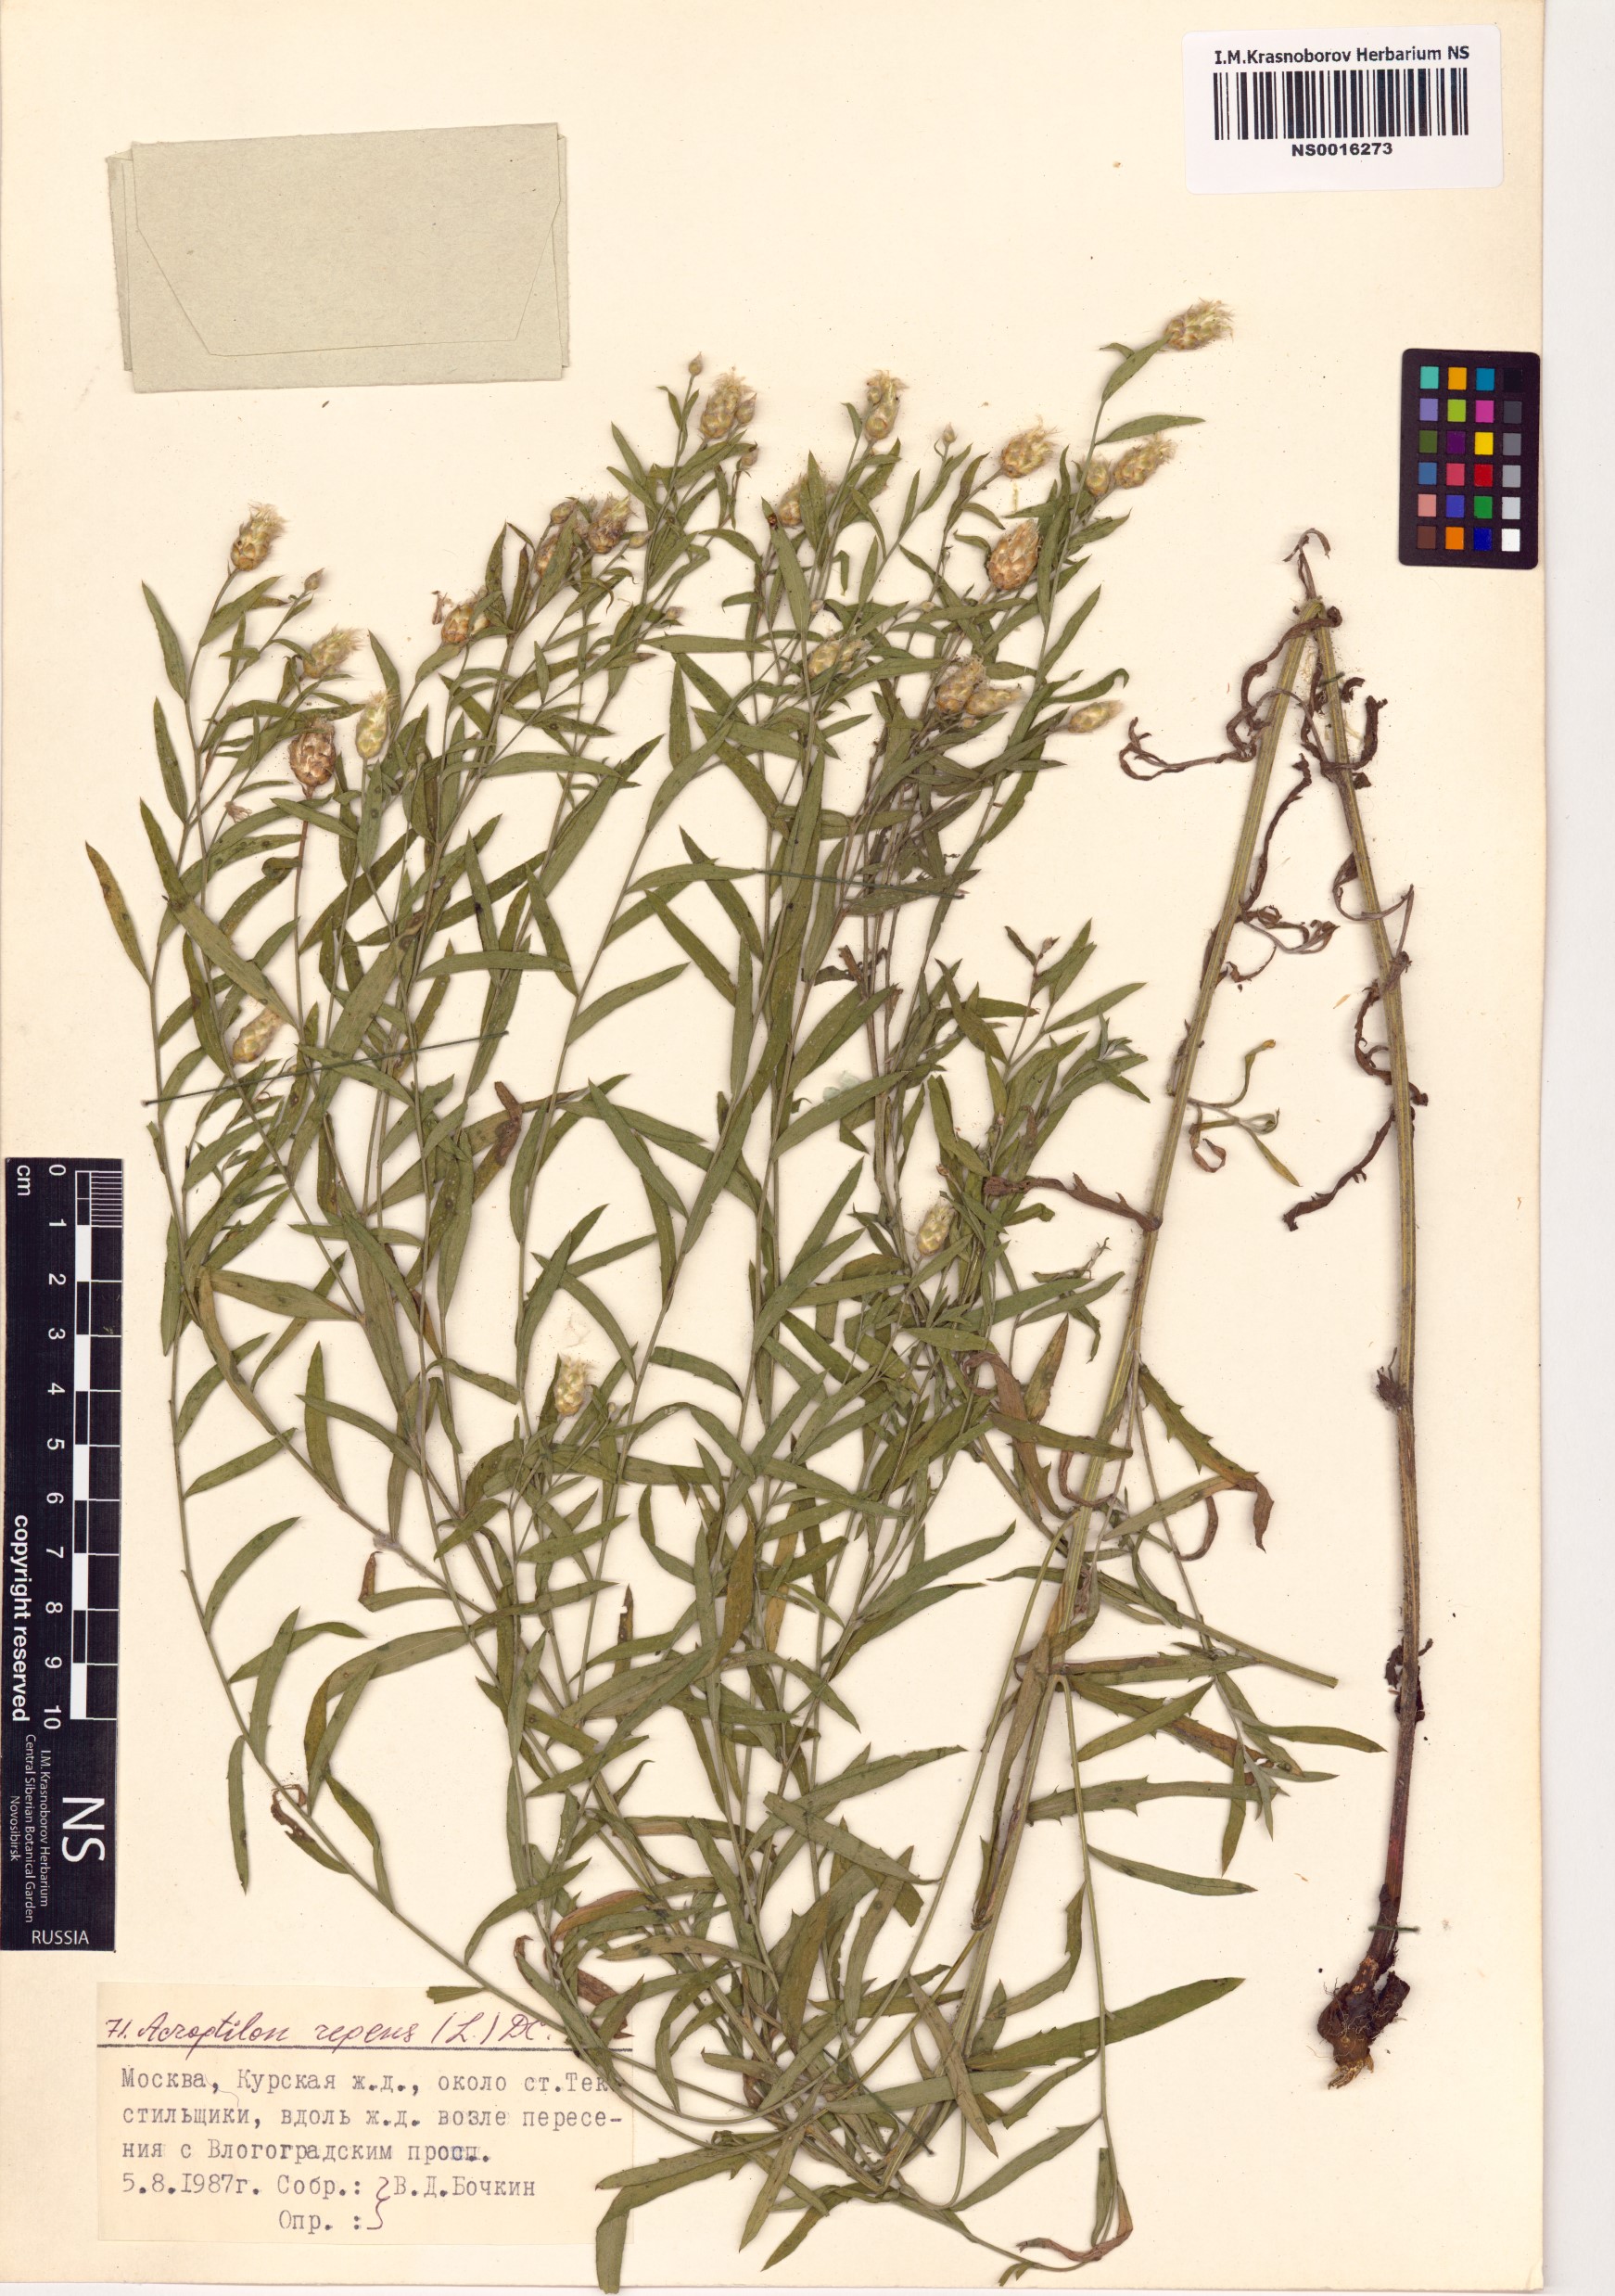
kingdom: Plantae
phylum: Tracheophyta
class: Magnoliopsida
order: Asterales
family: Asteraceae
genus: Leuzea
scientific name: Leuzea repens
